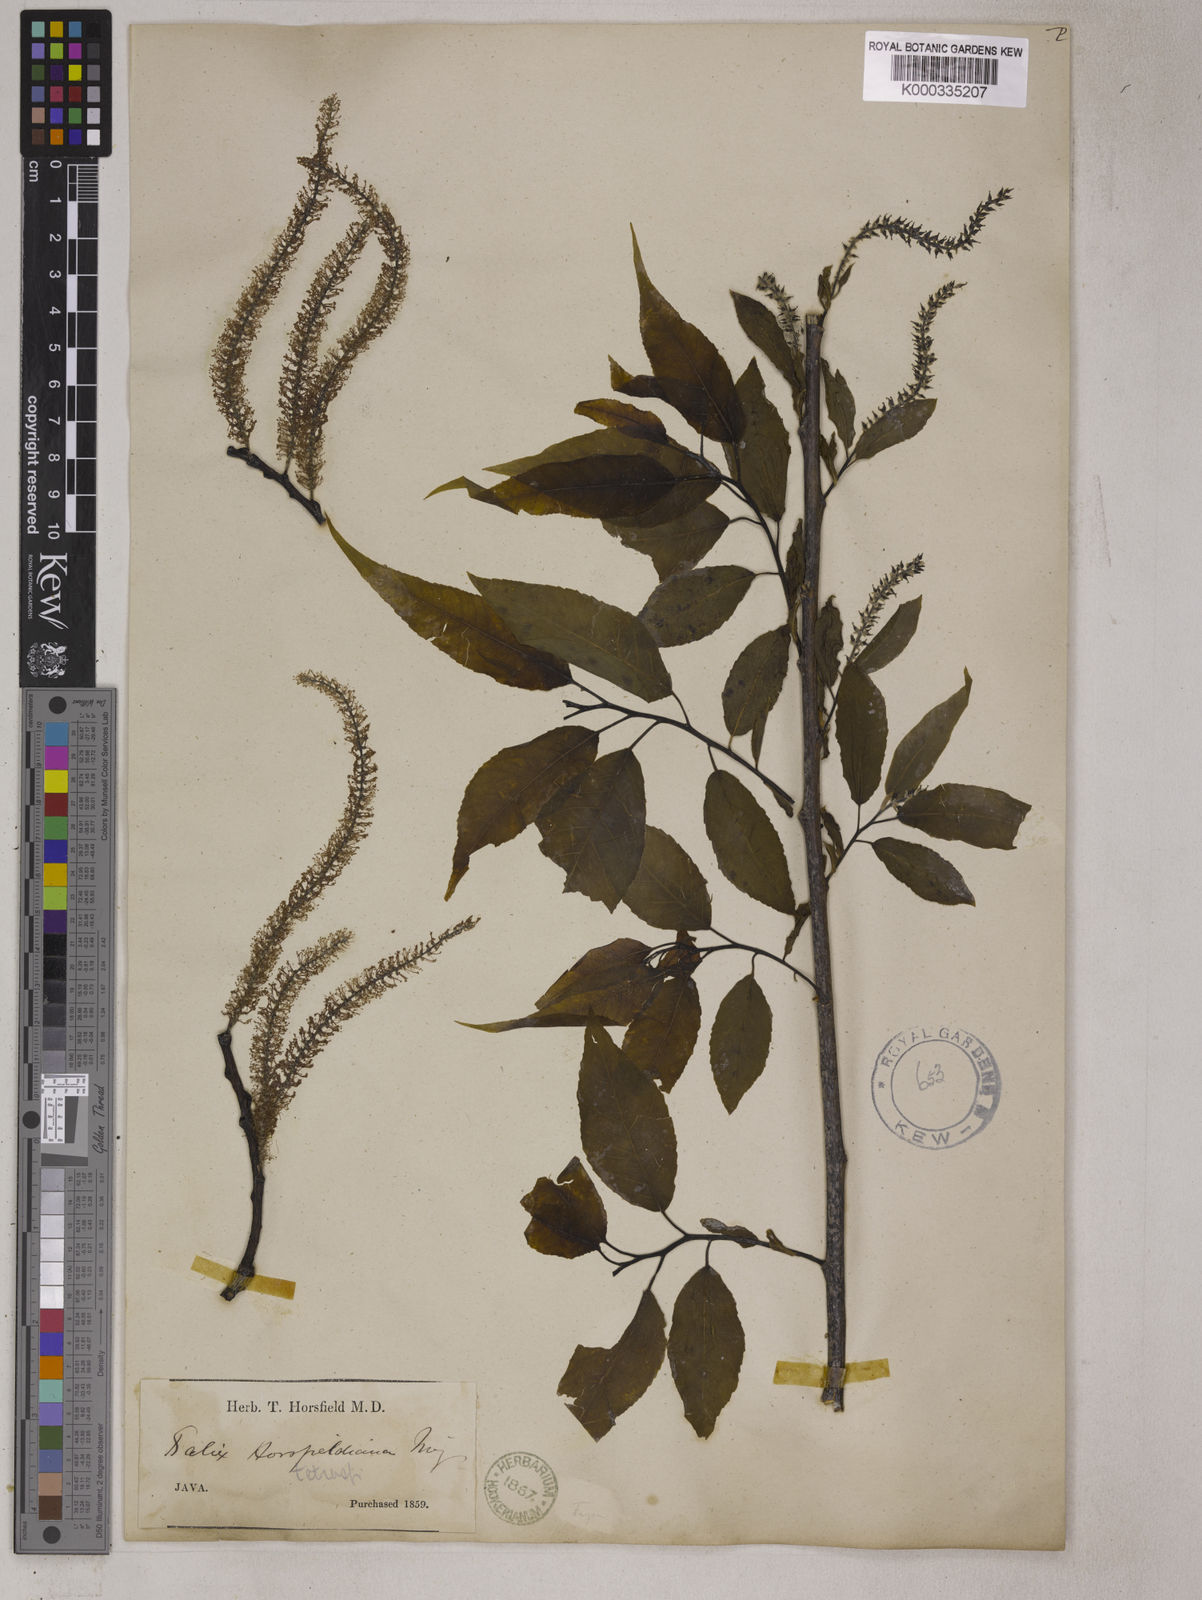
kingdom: Plantae
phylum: Tracheophyta
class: Magnoliopsida
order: Malpighiales
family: Salicaceae
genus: Salix
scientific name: Salix tetrasperma
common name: Indian willow
